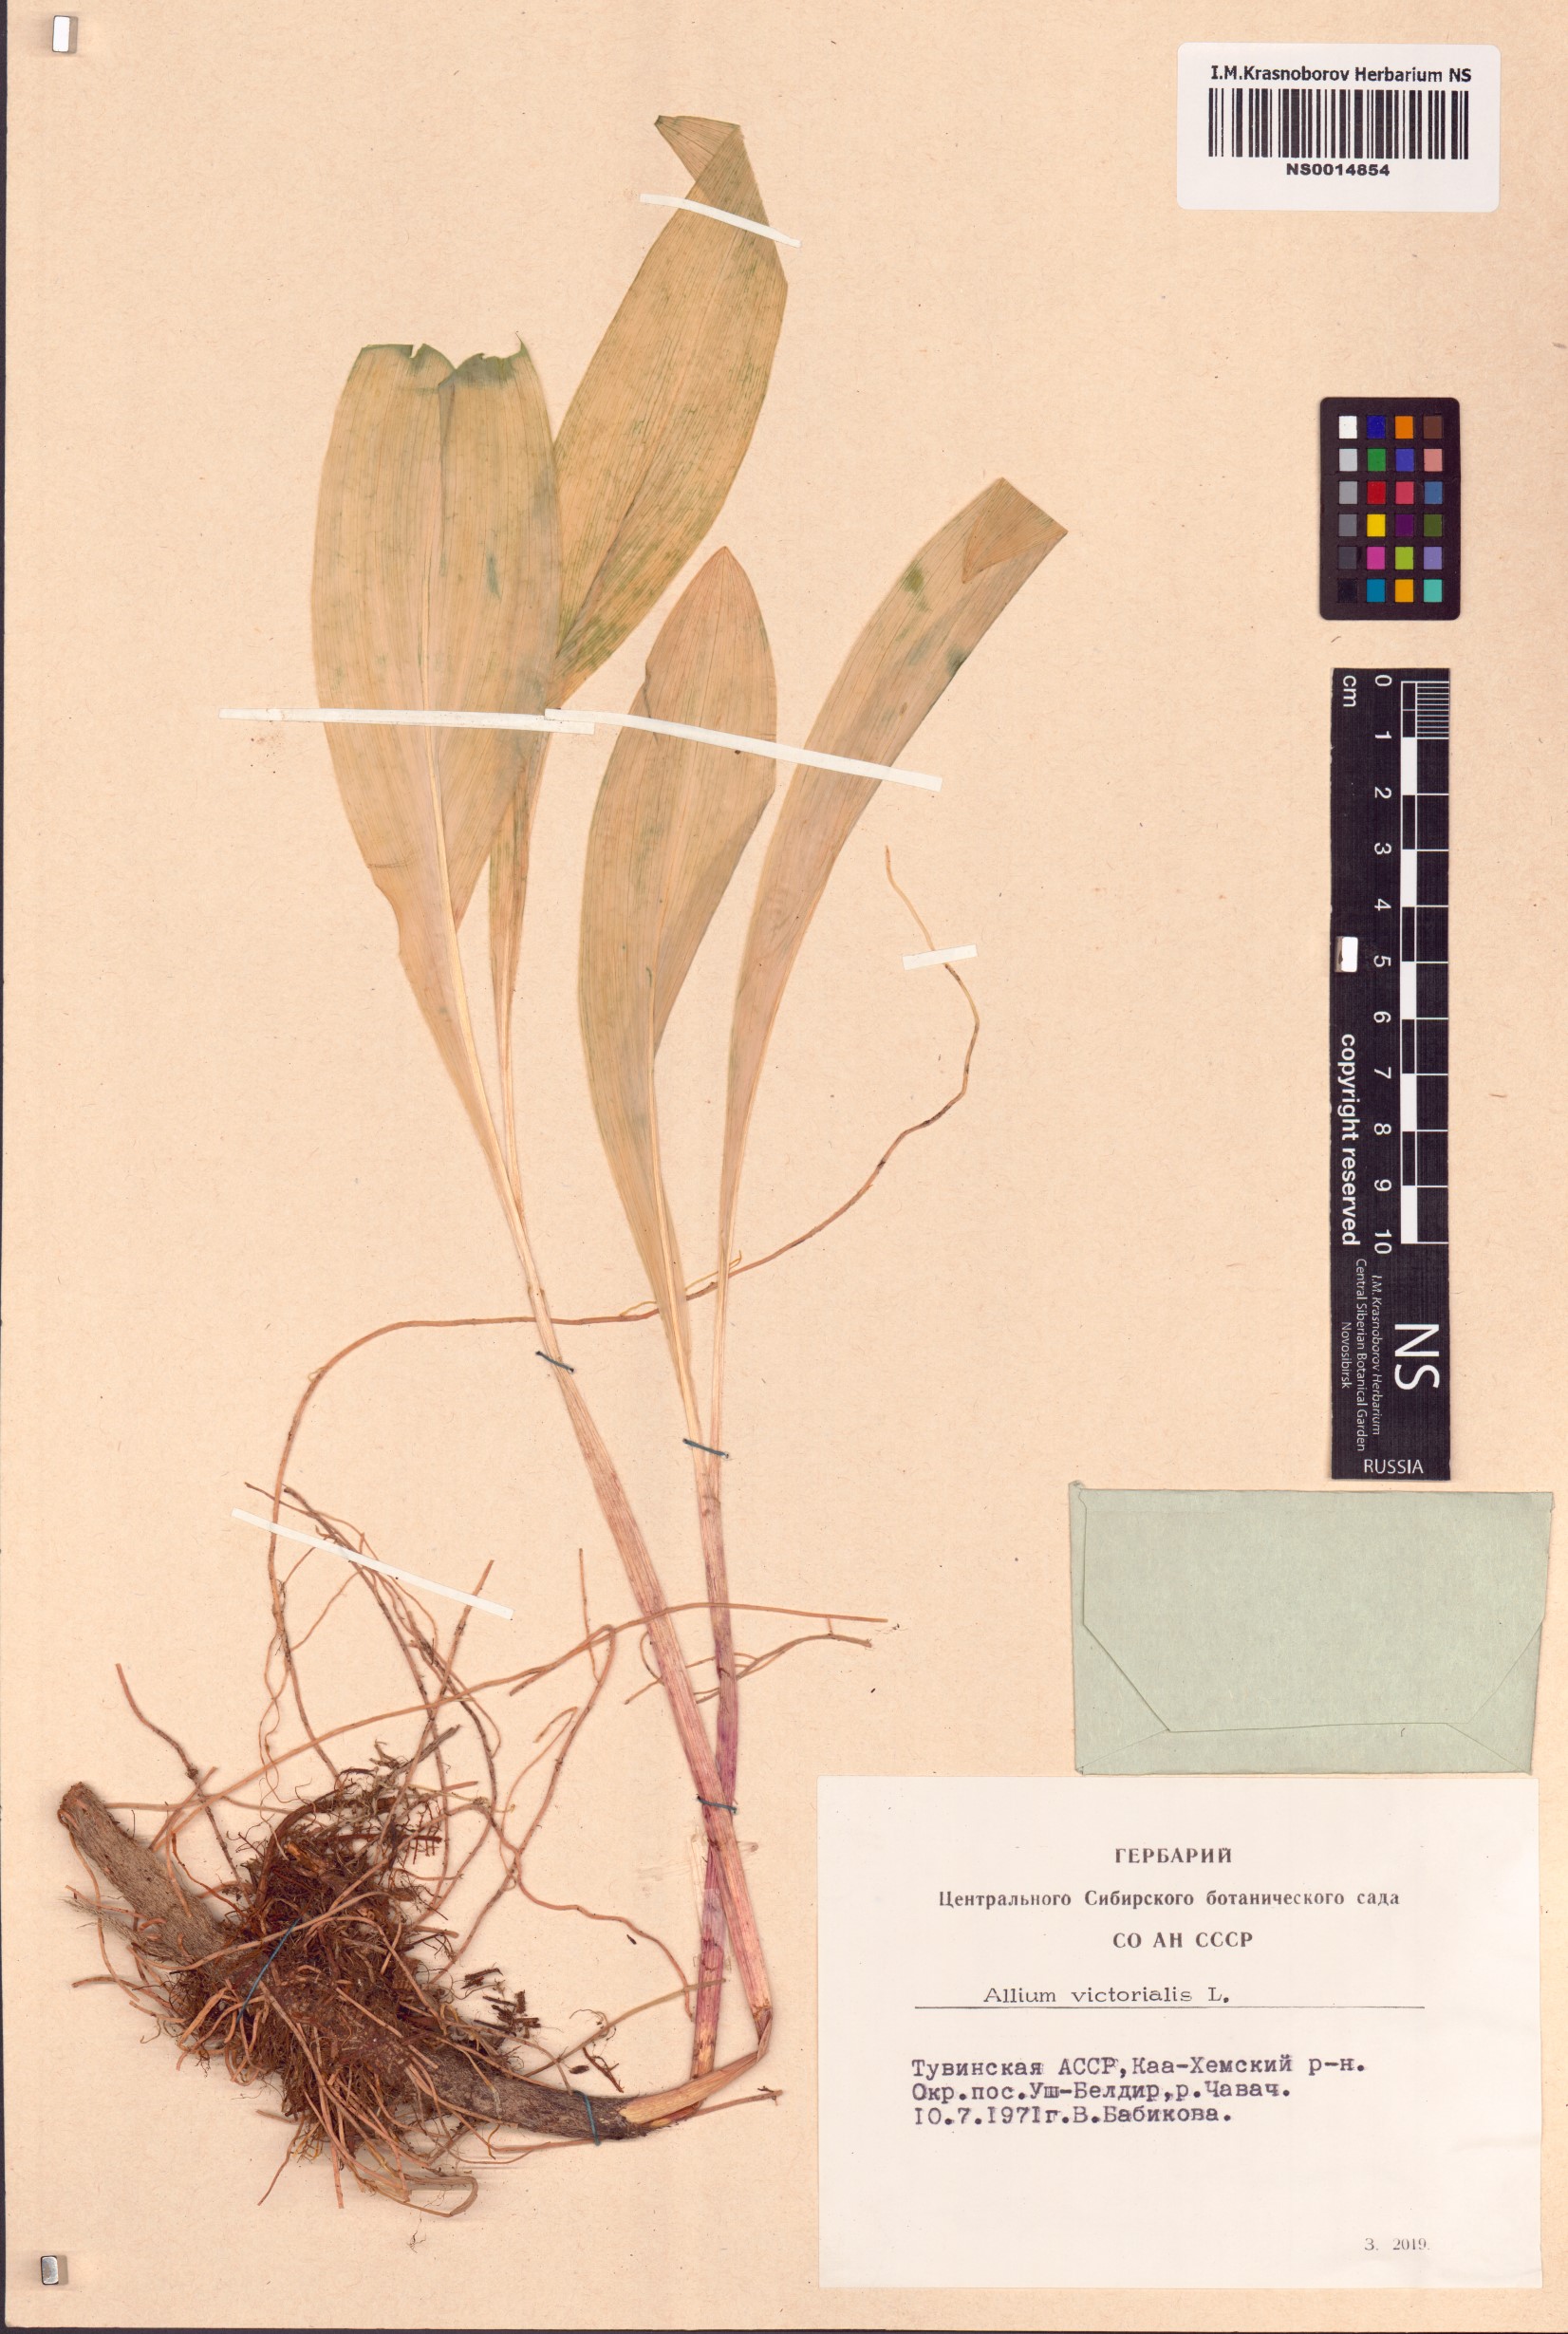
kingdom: Plantae
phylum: Tracheophyta
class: Liliopsida
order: Asparagales
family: Amaryllidaceae
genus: Allium
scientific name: Allium victorialis
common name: Alpine leek
